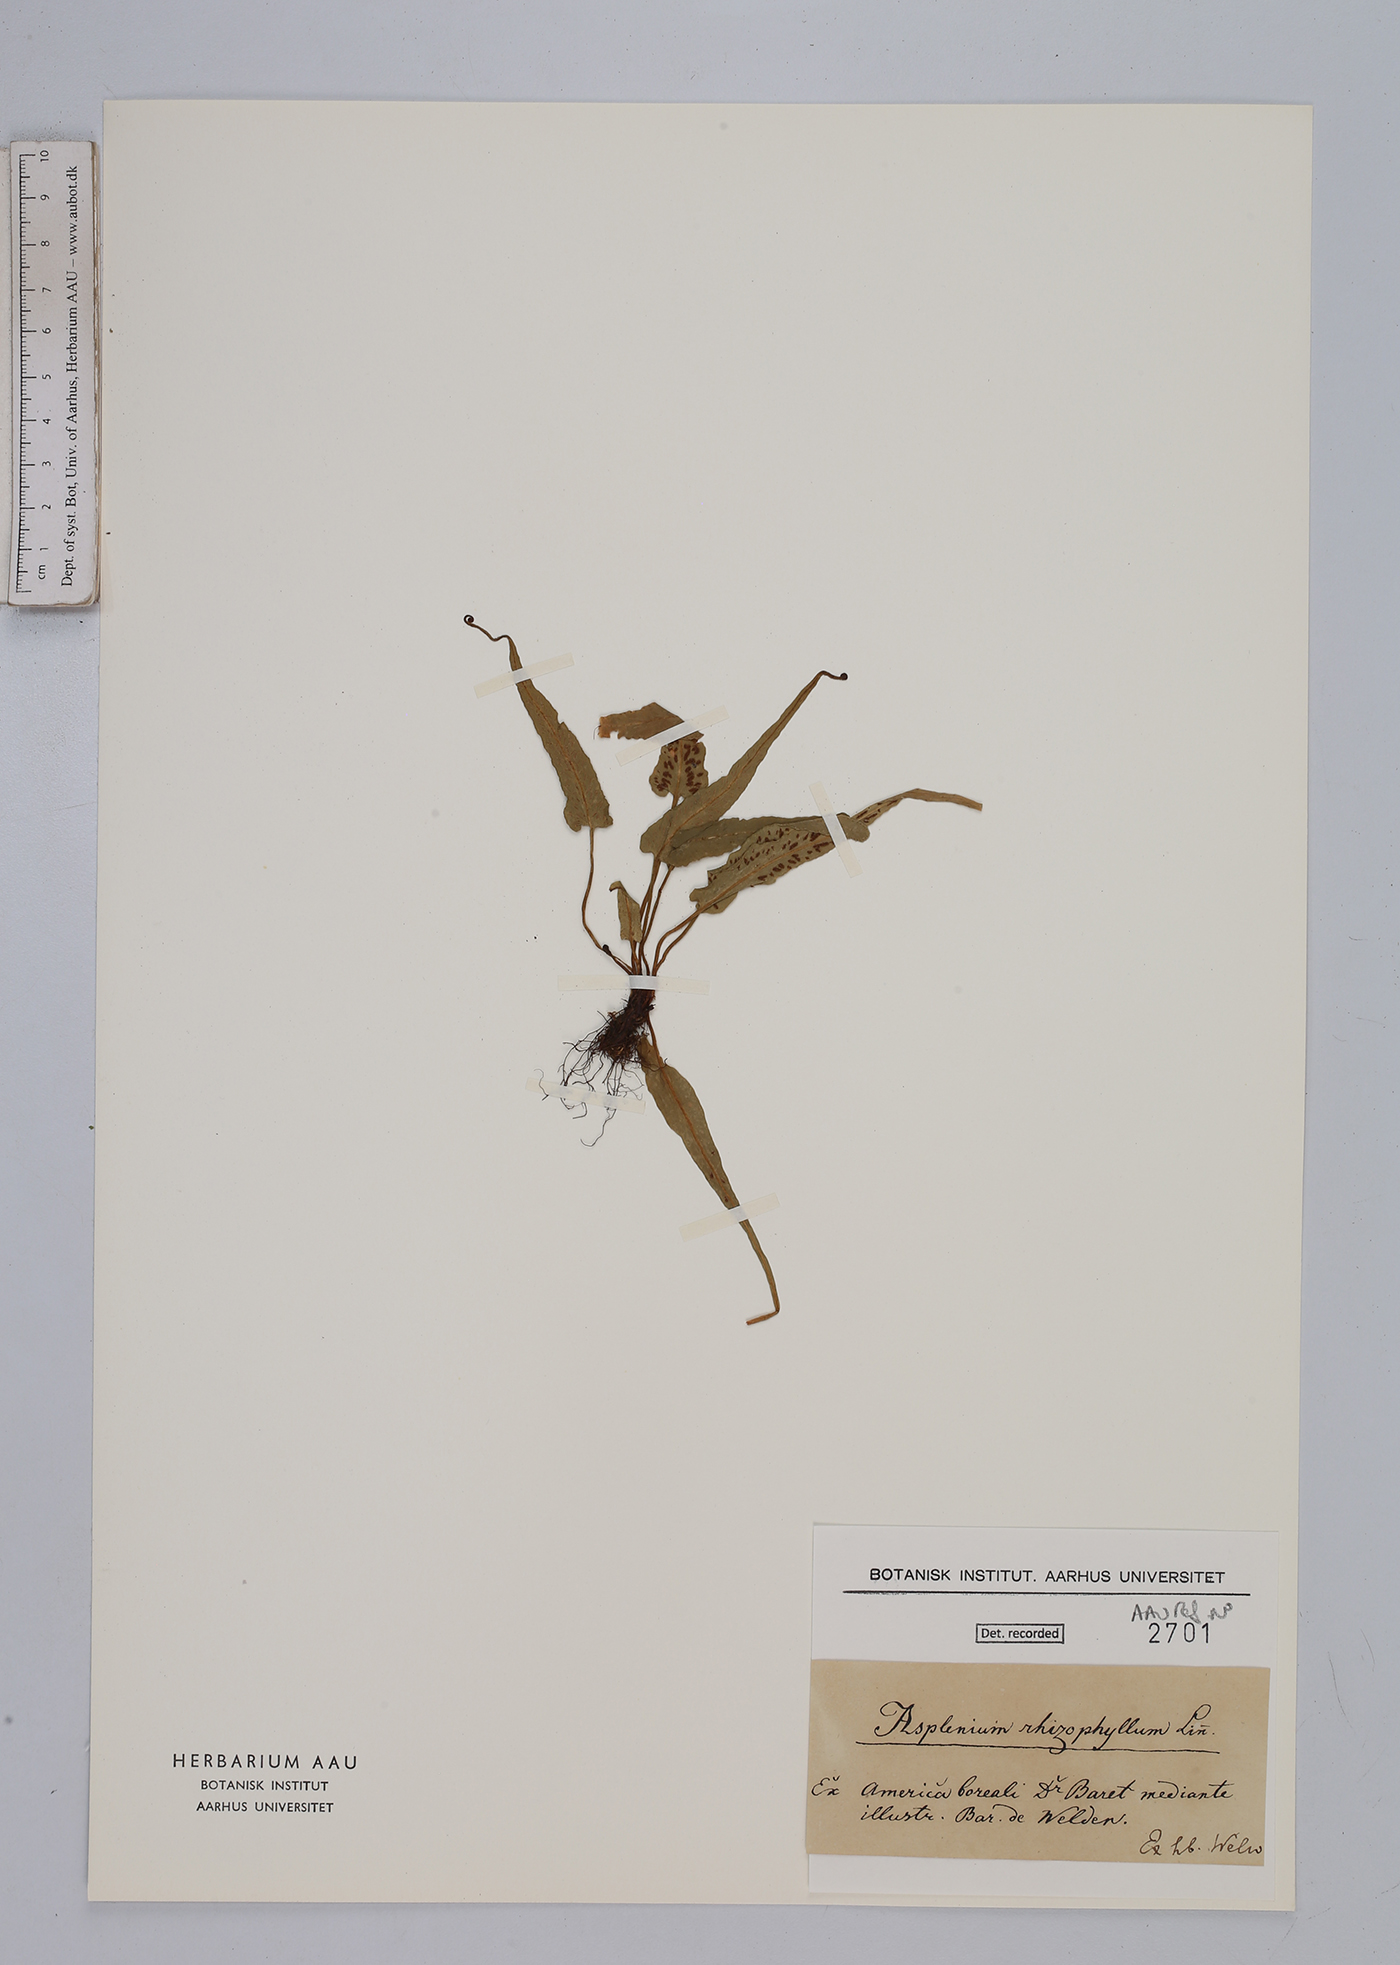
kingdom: Plantae
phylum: Tracheophyta
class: Polypodiopsida
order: Polypodiales
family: Aspleniaceae
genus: Asplenium
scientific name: Asplenium rhizophyllum
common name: Walking fern
